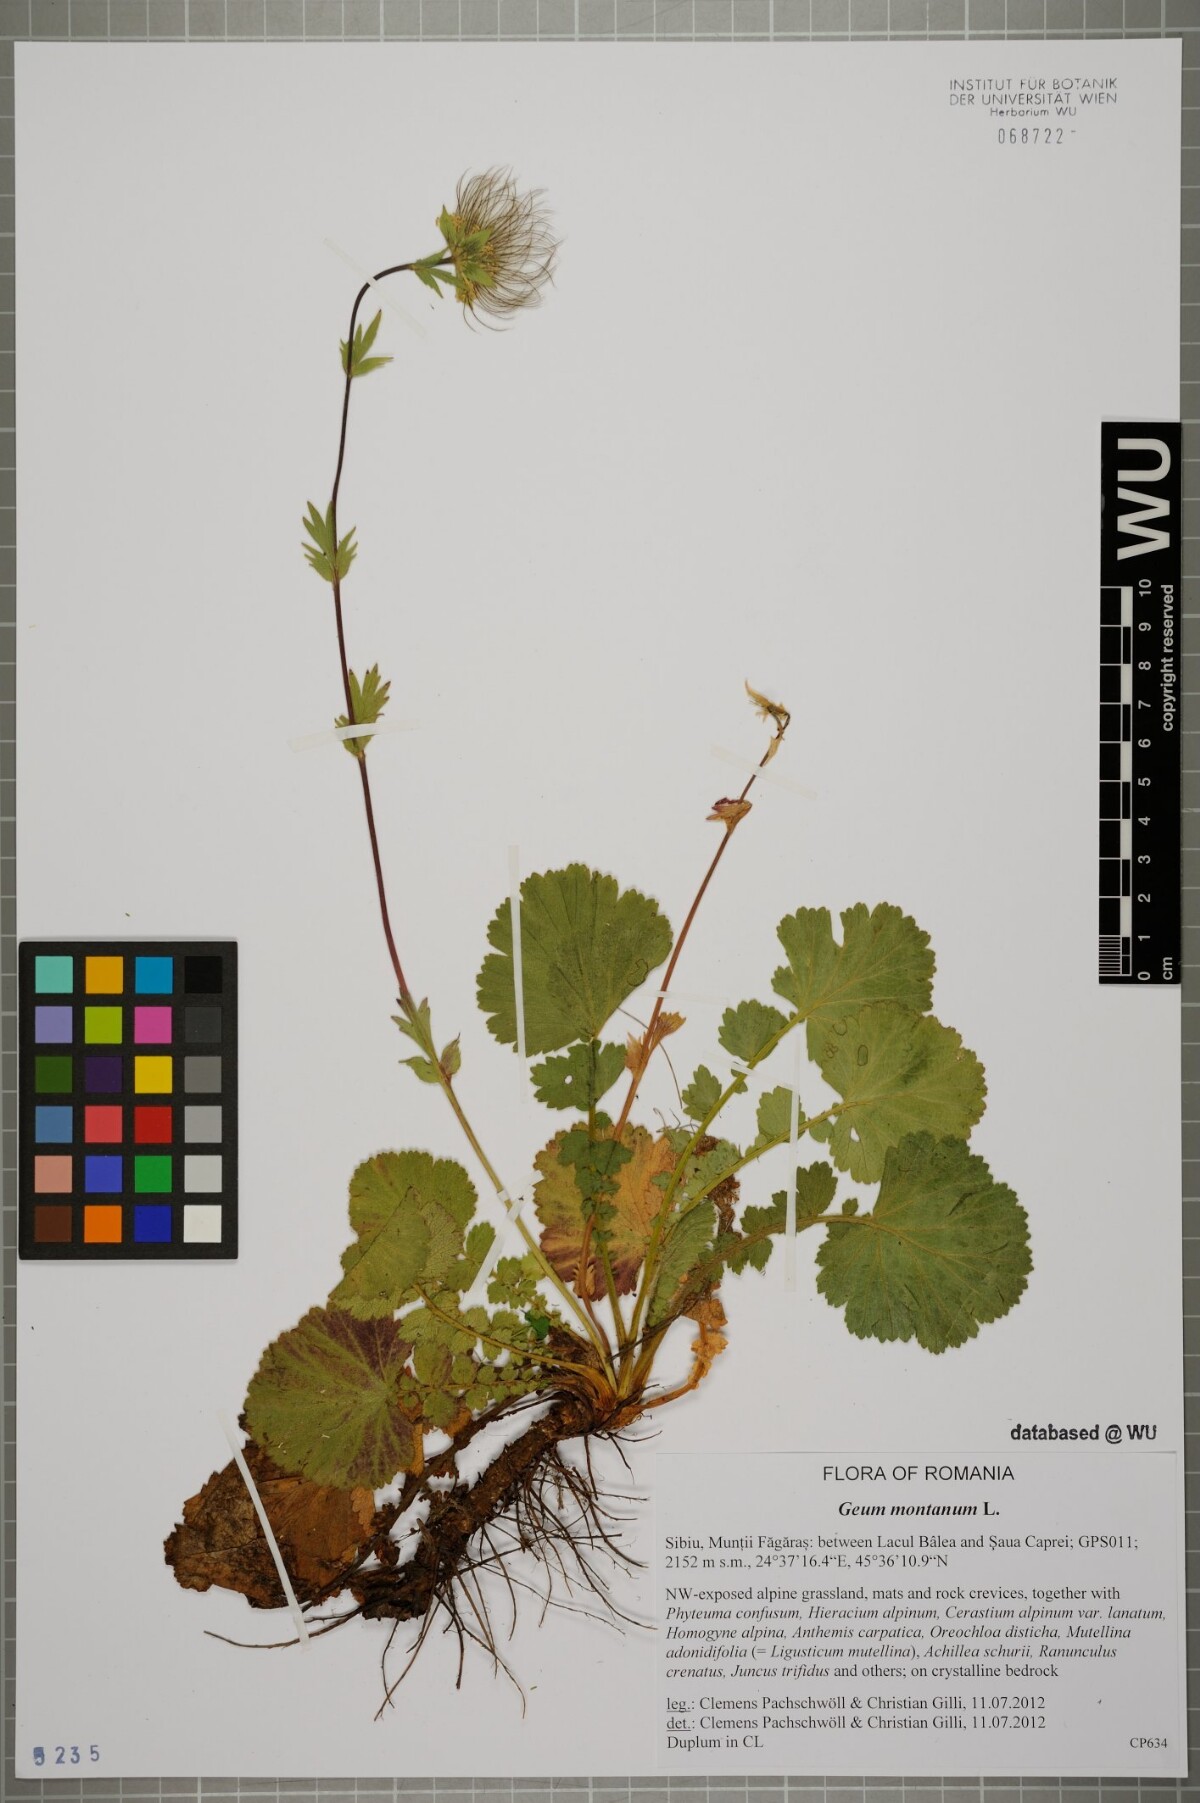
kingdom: Plantae
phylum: Tracheophyta
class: Magnoliopsida
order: Rosales
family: Rosaceae
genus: Geum
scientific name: Geum montanum
